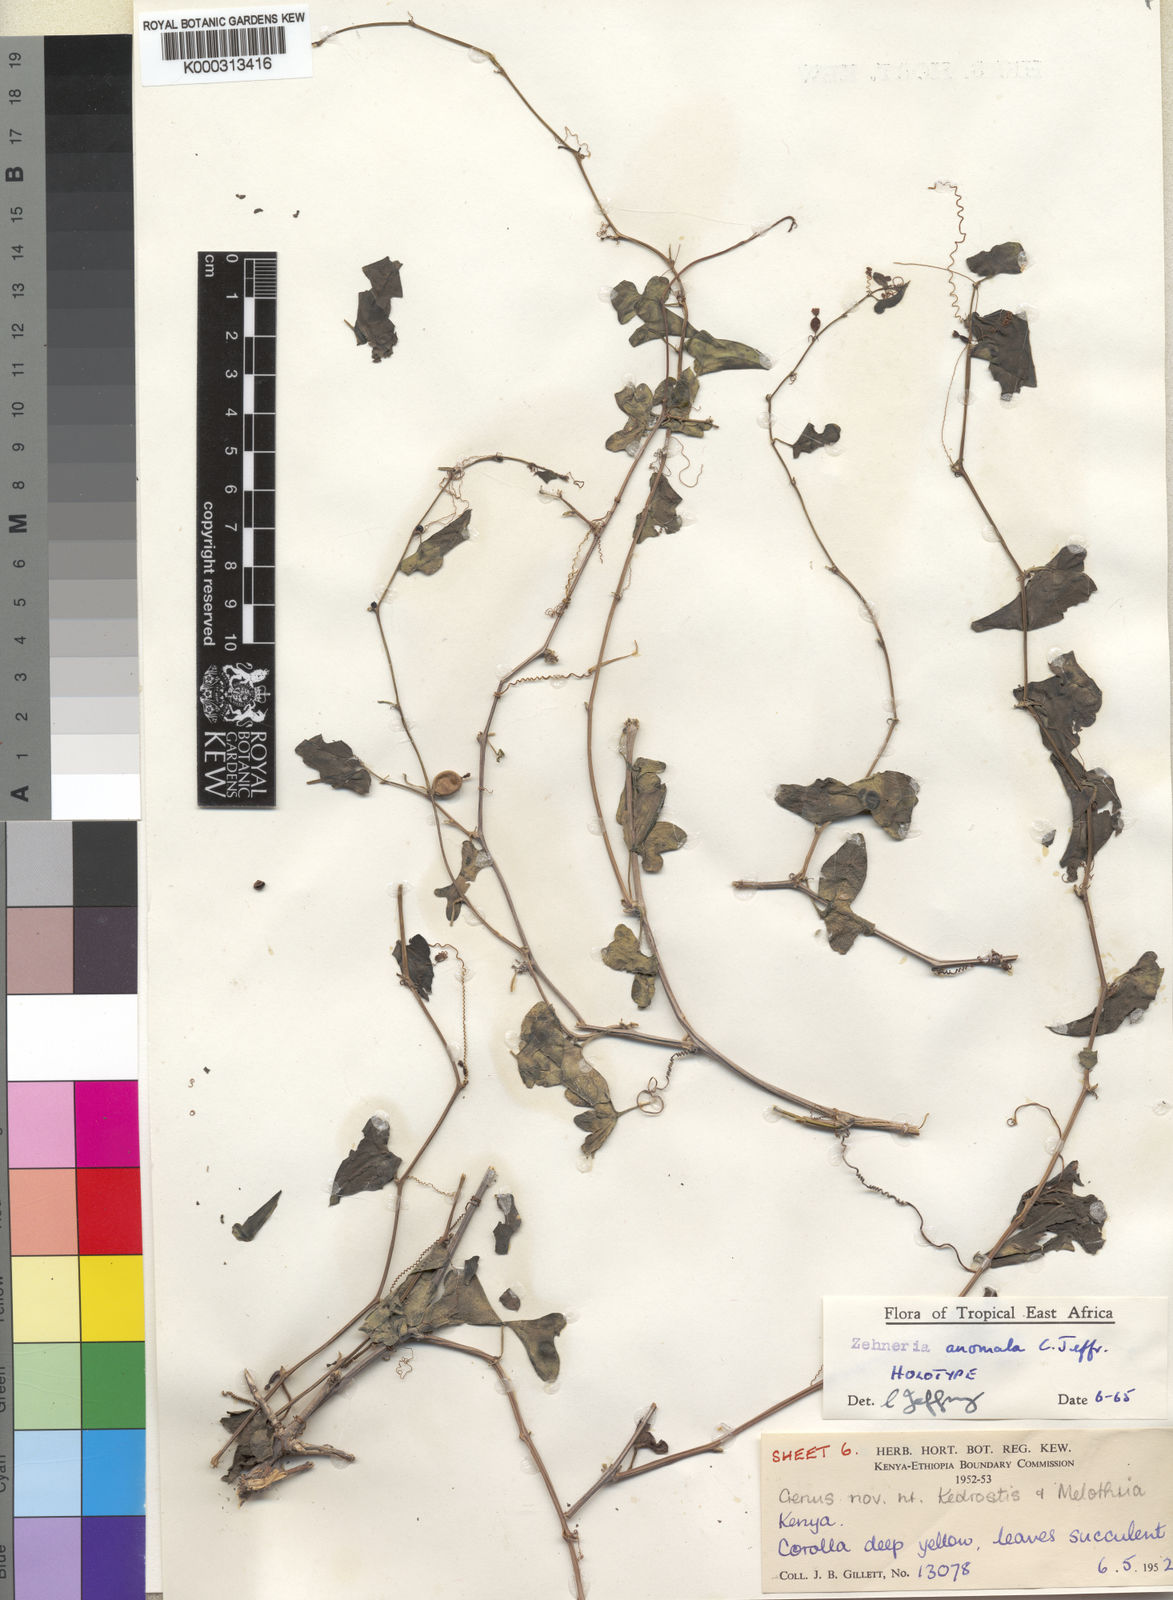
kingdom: Plantae
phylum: Tracheophyta
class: Magnoliopsida
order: Cucurbitales
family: Cucurbitaceae
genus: Zehneria
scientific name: Zehneria anomala
